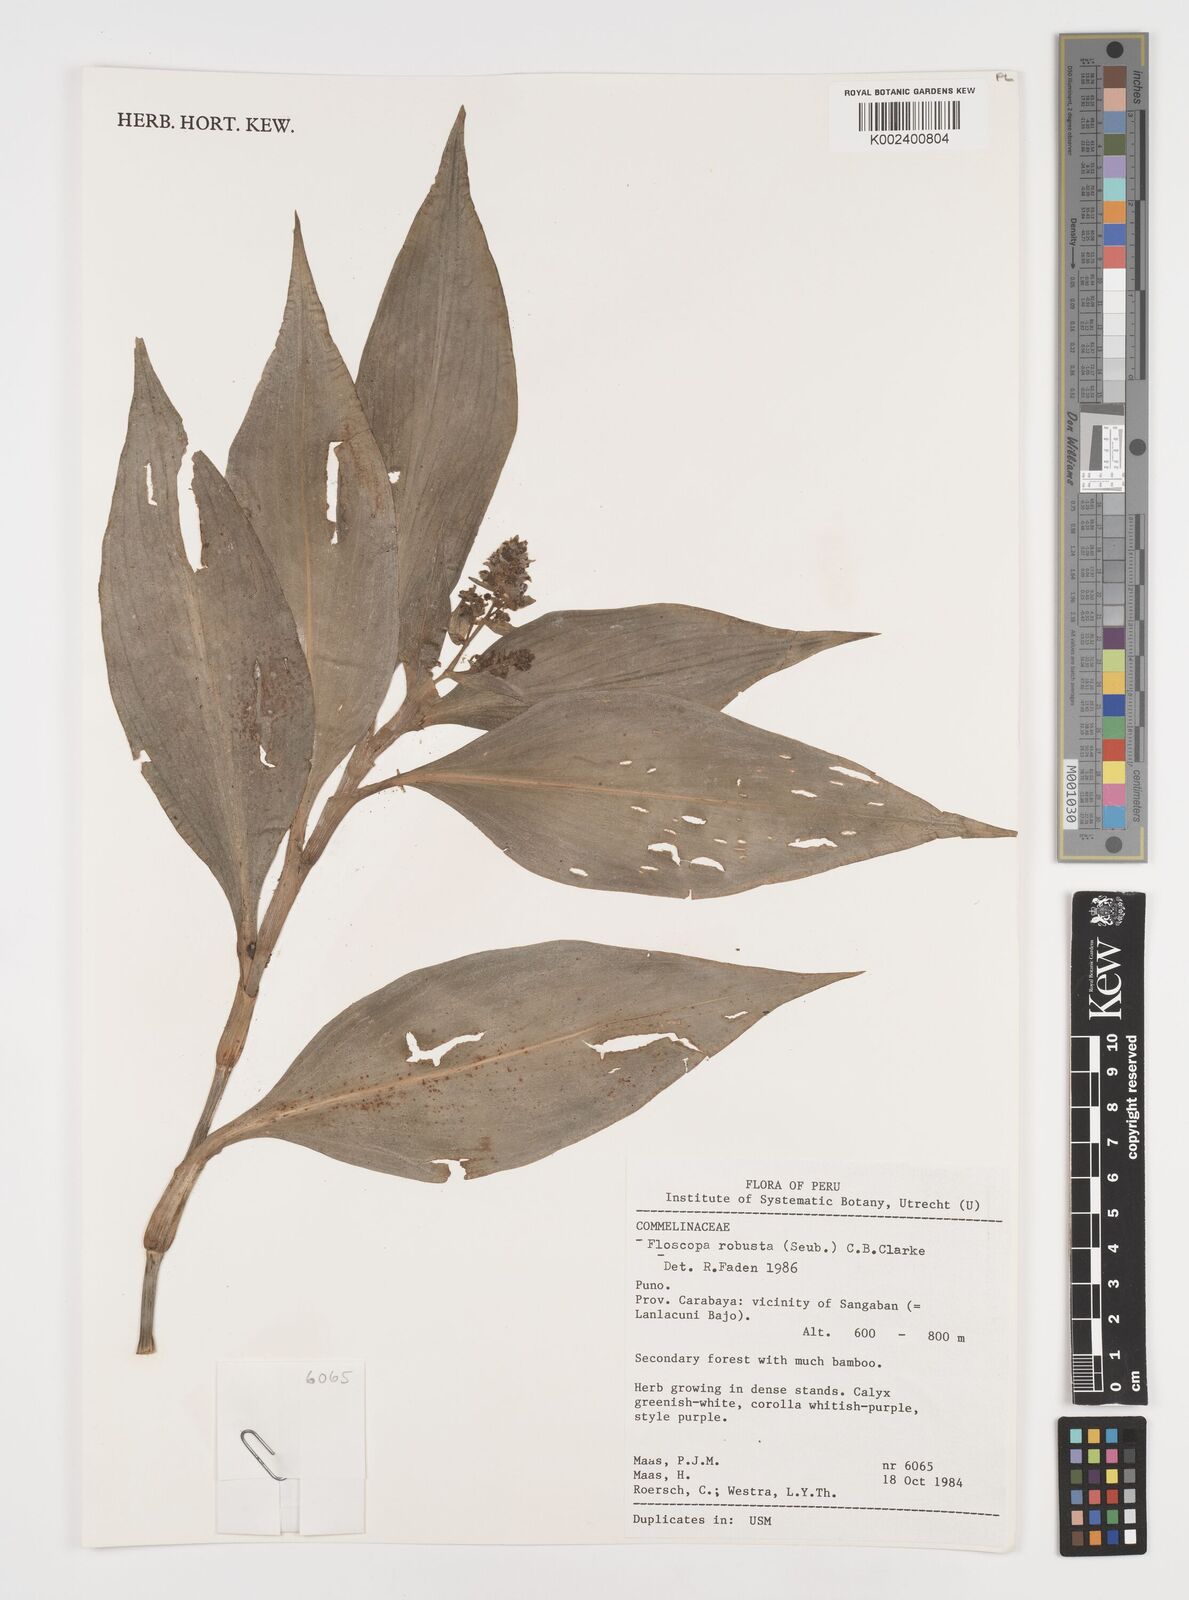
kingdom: Plantae
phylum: Tracheophyta
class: Liliopsida
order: Commelinales
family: Commelinaceae
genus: Floscopa
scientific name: Floscopa robusta
